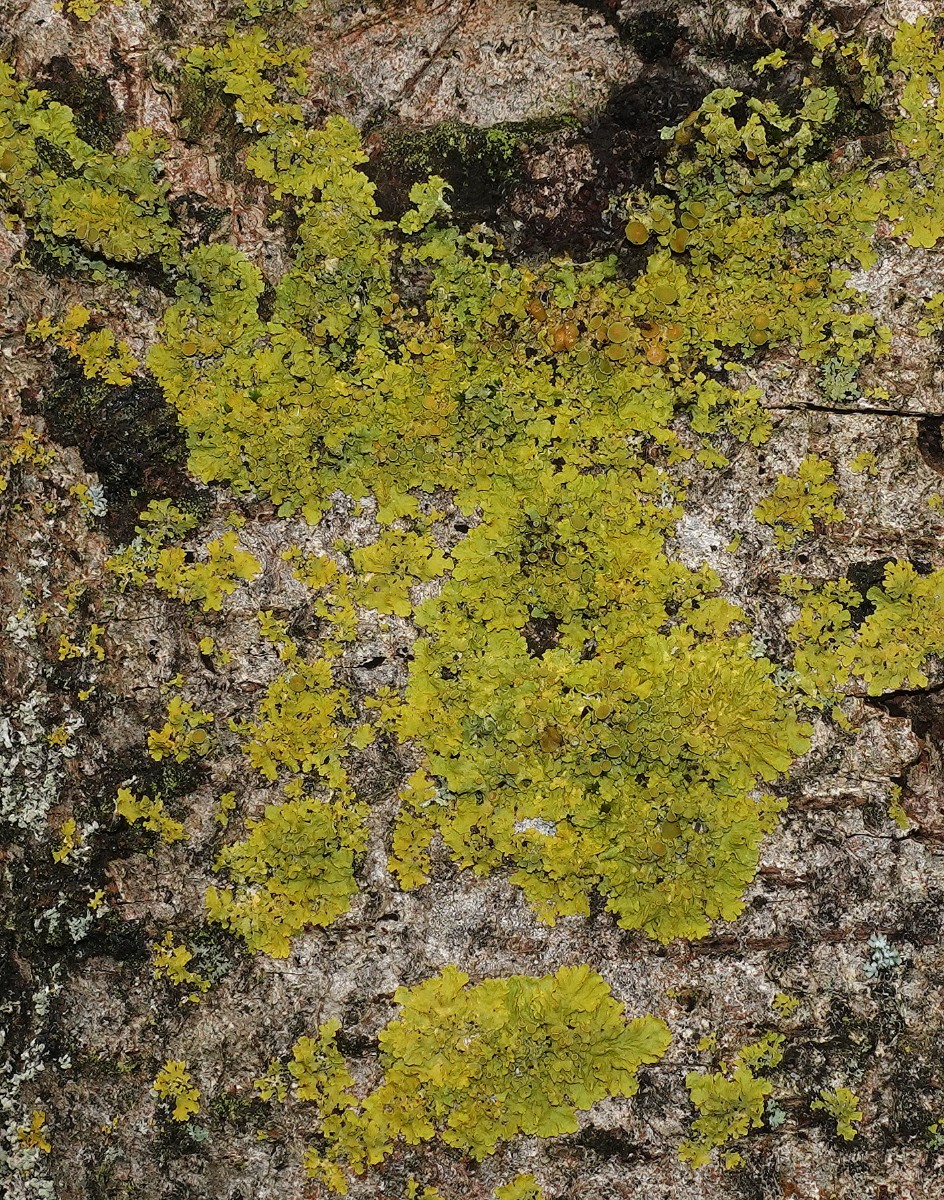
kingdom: Fungi
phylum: Ascomycota
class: Lecanoromycetes
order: Teloschistales
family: Teloschistaceae
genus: Xanthoria
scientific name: Xanthoria parietina
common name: almindelig væggelav
